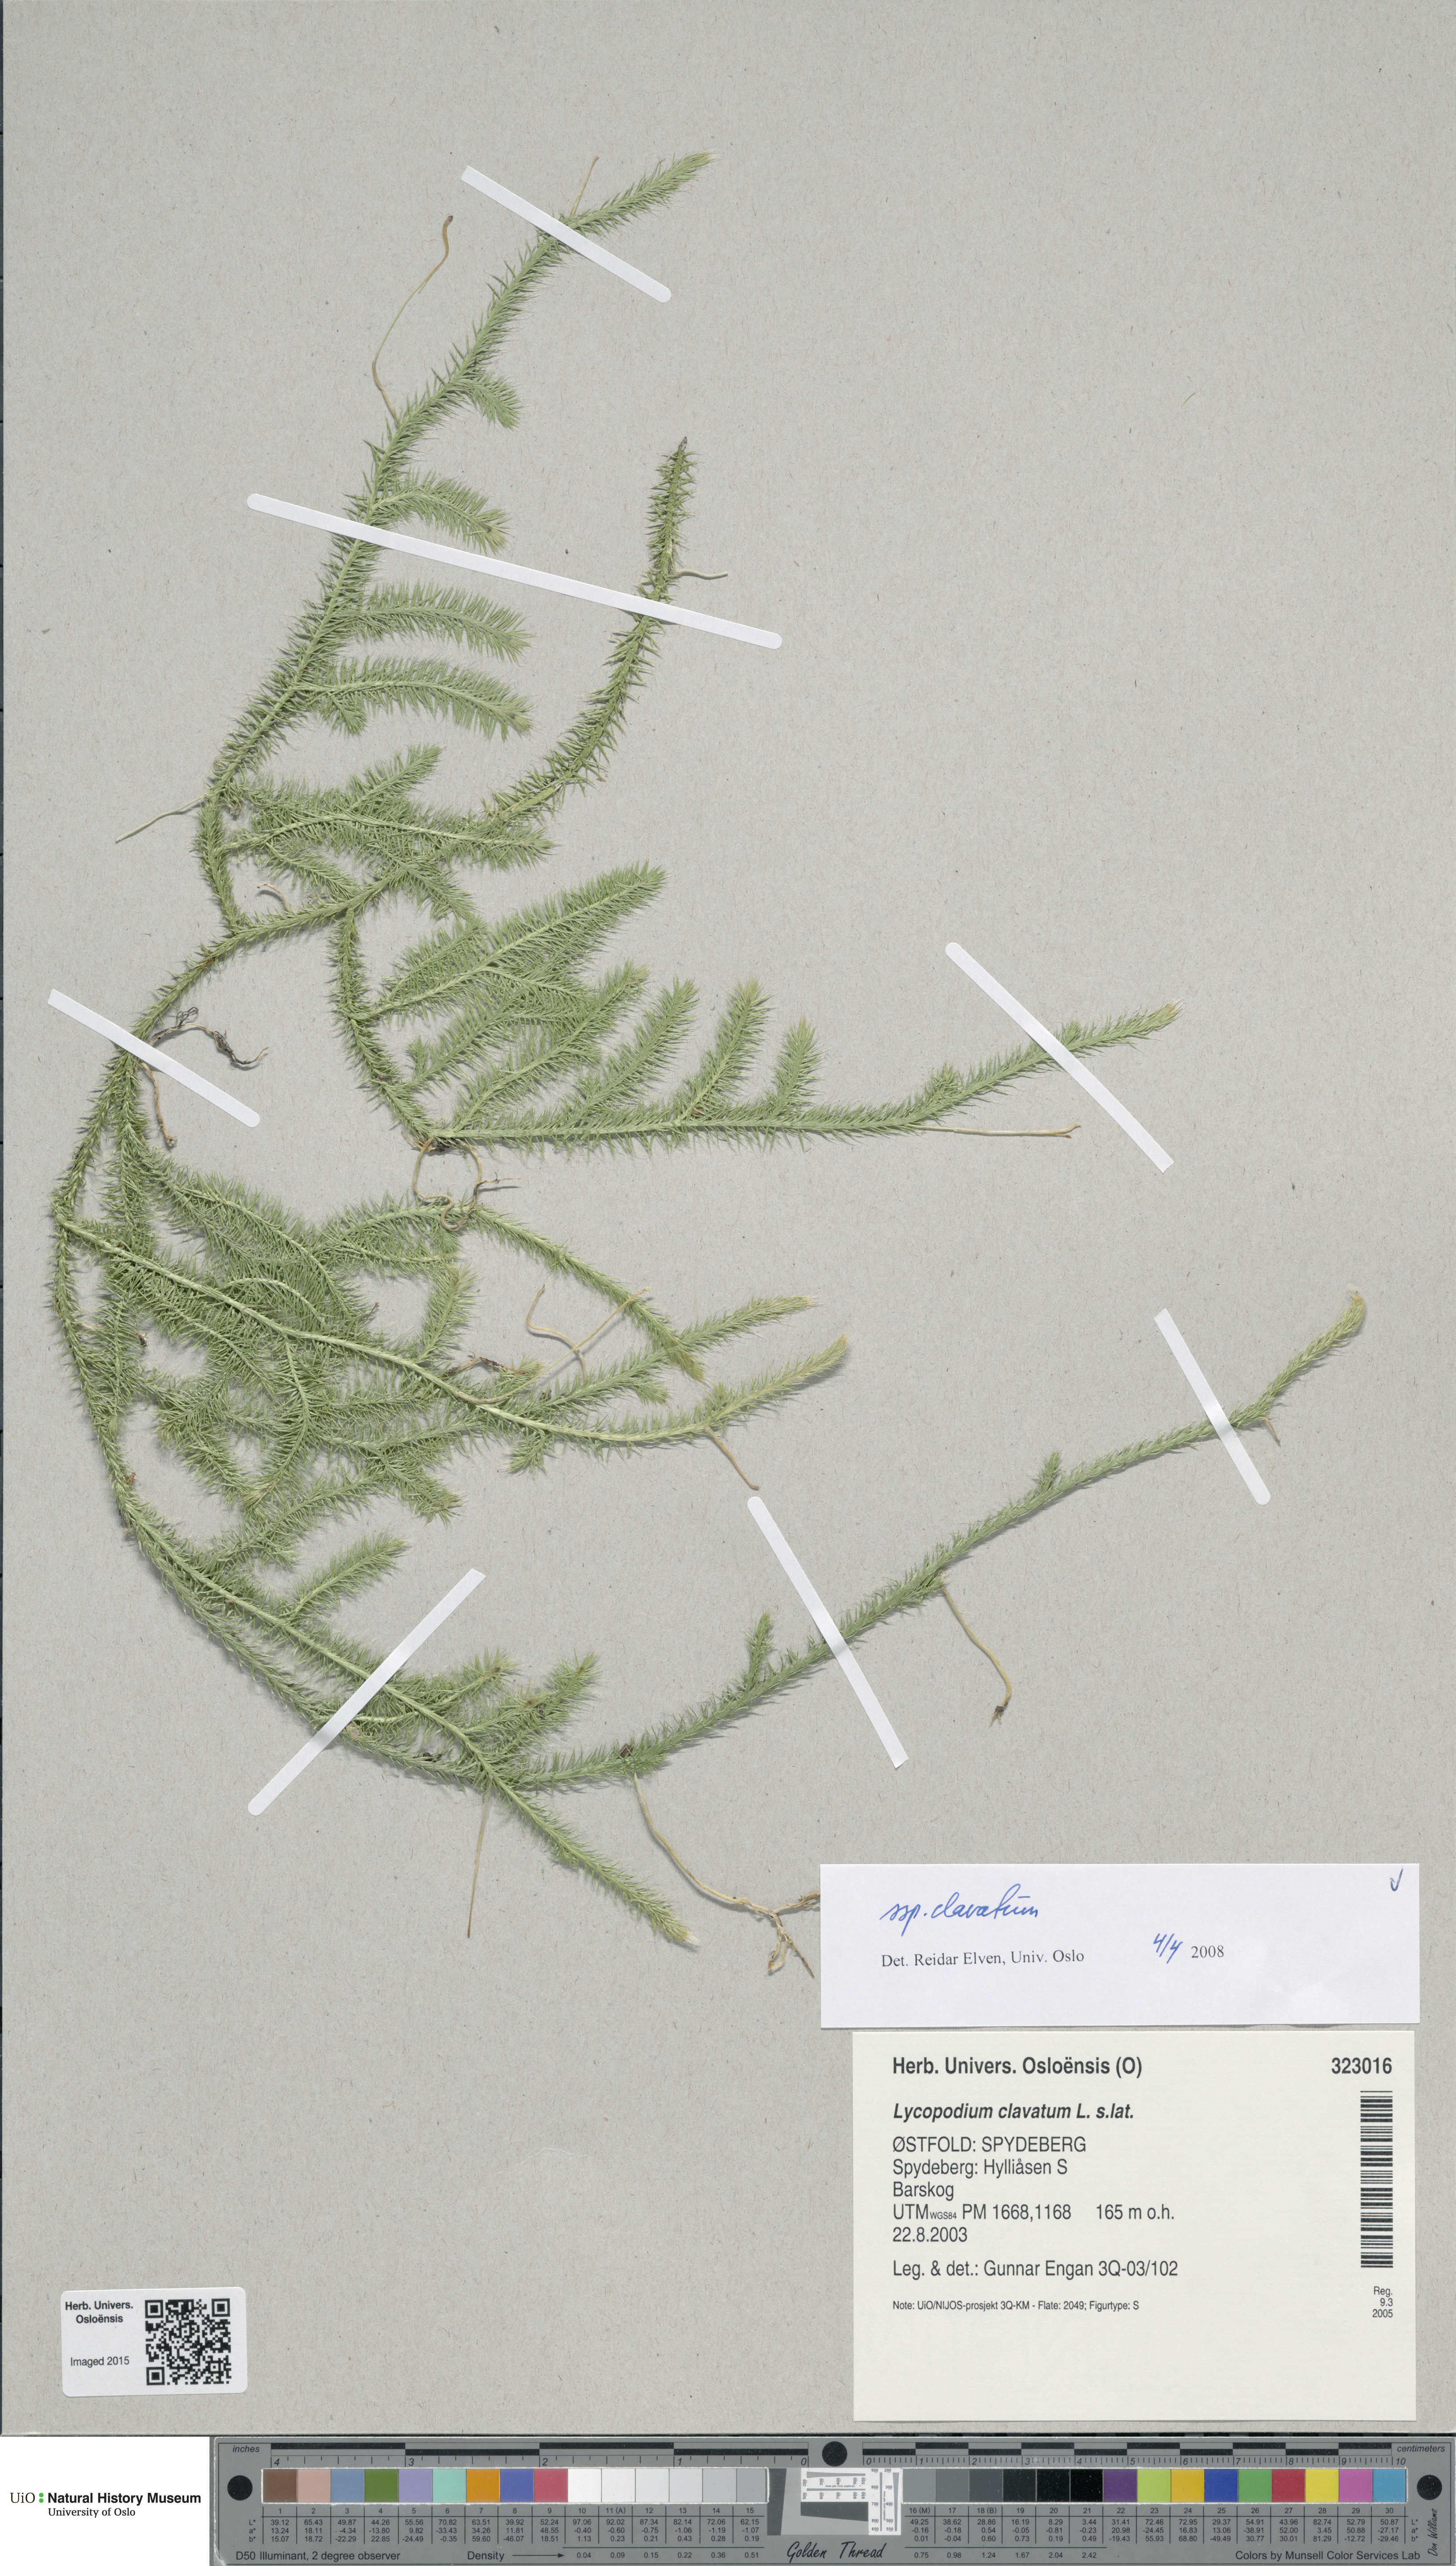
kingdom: Plantae
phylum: Tracheophyta
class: Lycopodiopsida
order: Lycopodiales
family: Lycopodiaceae
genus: Lycopodium
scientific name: Lycopodium clavatum
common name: Stag's-horn clubmoss
